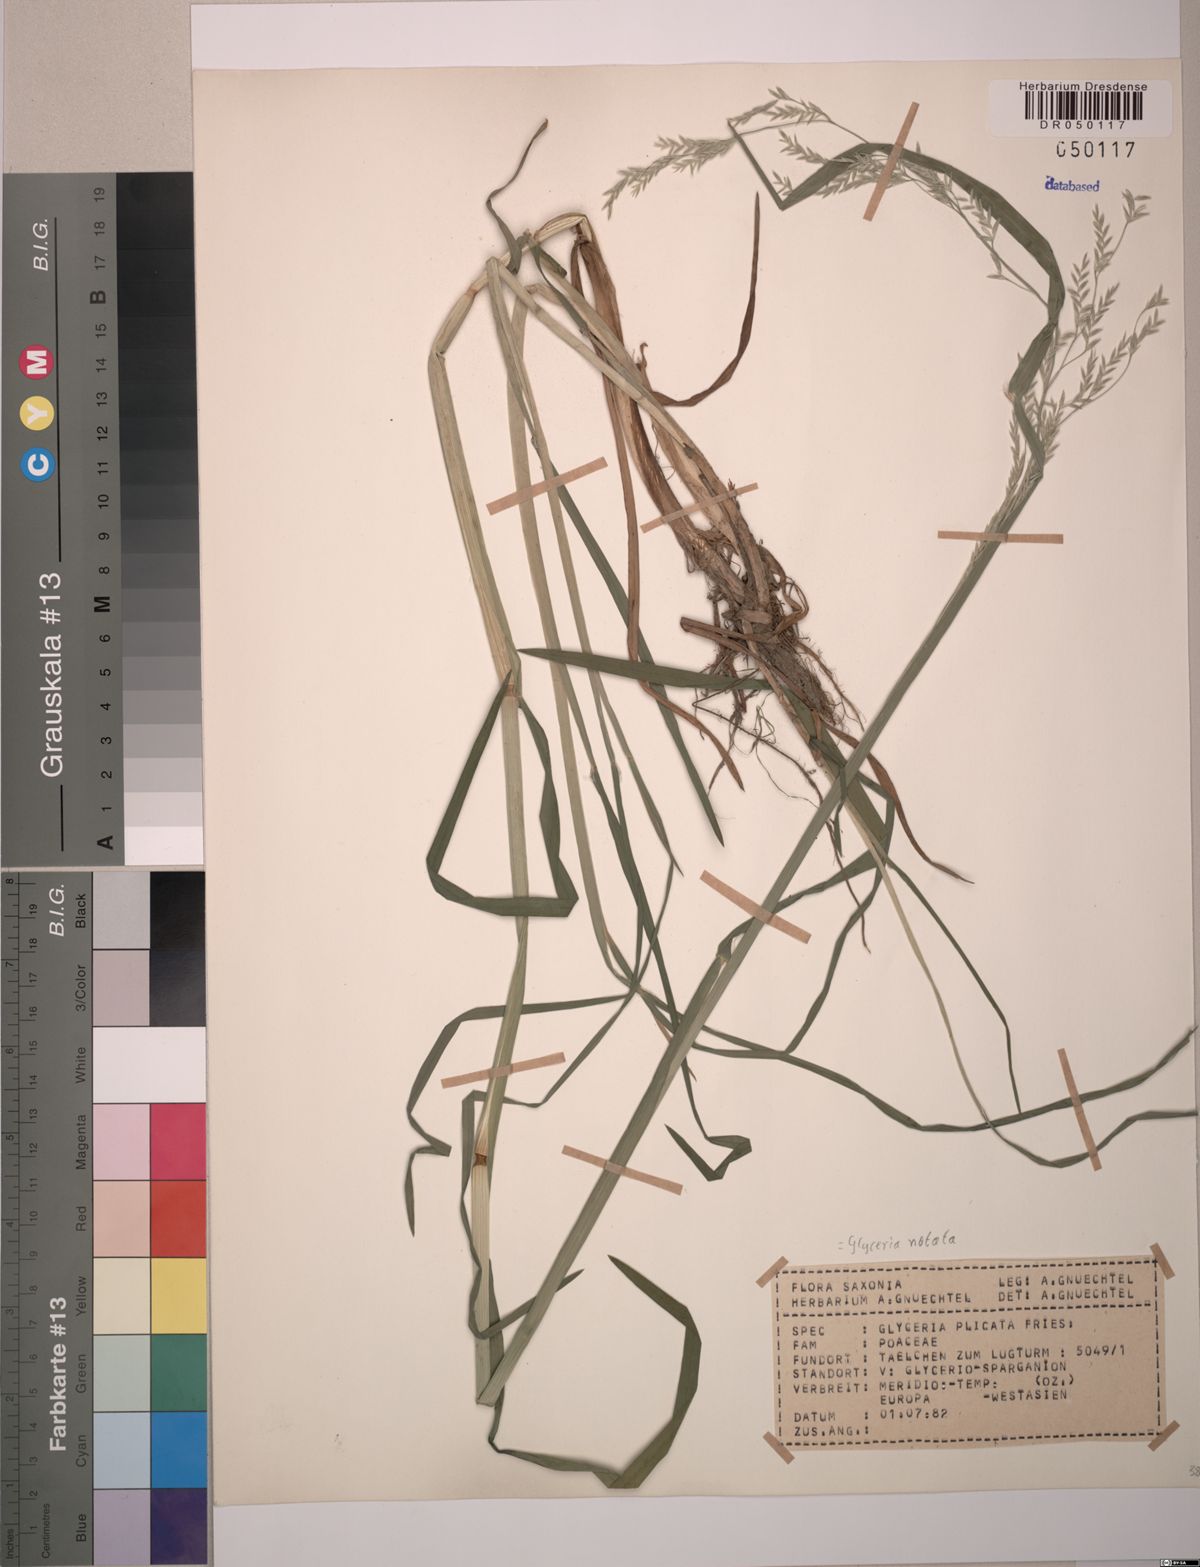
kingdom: Plantae
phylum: Tracheophyta
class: Liliopsida
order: Poales
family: Poaceae
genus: Glyceria
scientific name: Glyceria notata
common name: Plicate sweet-grass
